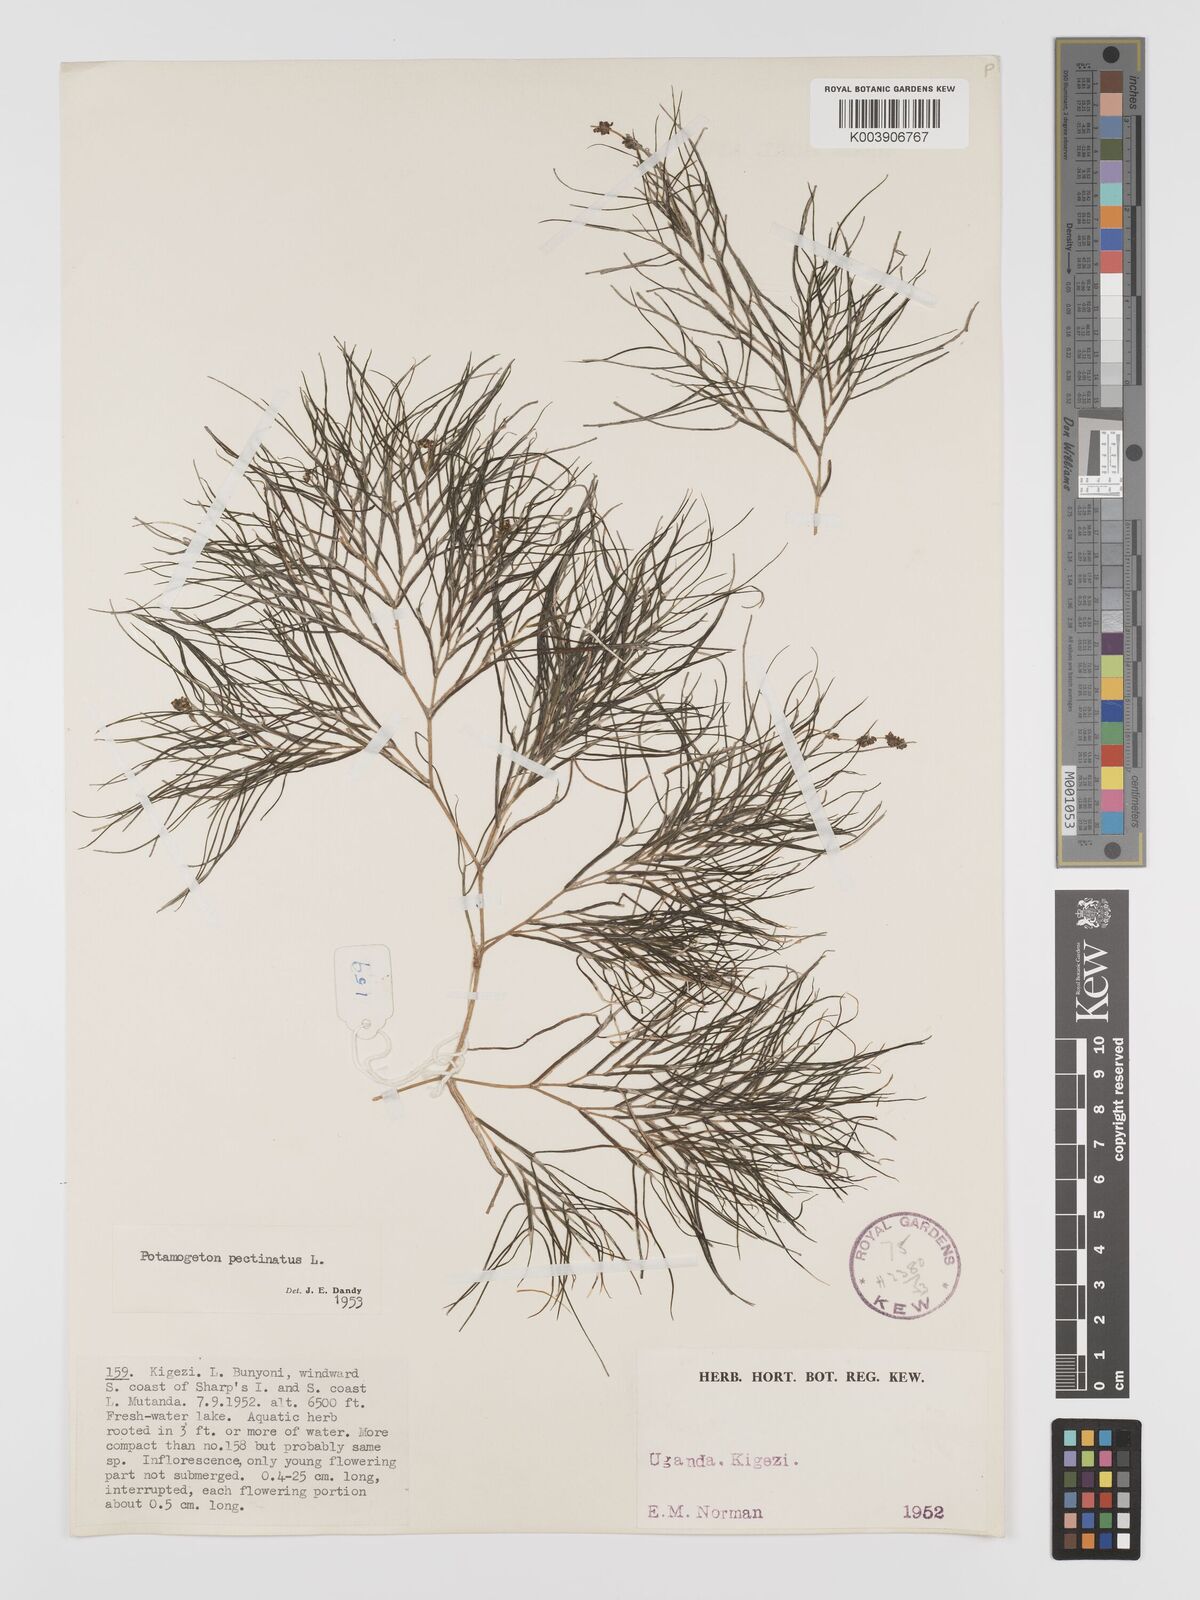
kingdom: Plantae
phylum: Tracheophyta
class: Liliopsida
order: Alismatales
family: Potamogetonaceae
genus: Stuckenia
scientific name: Stuckenia pectinata
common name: Sago pondweed
